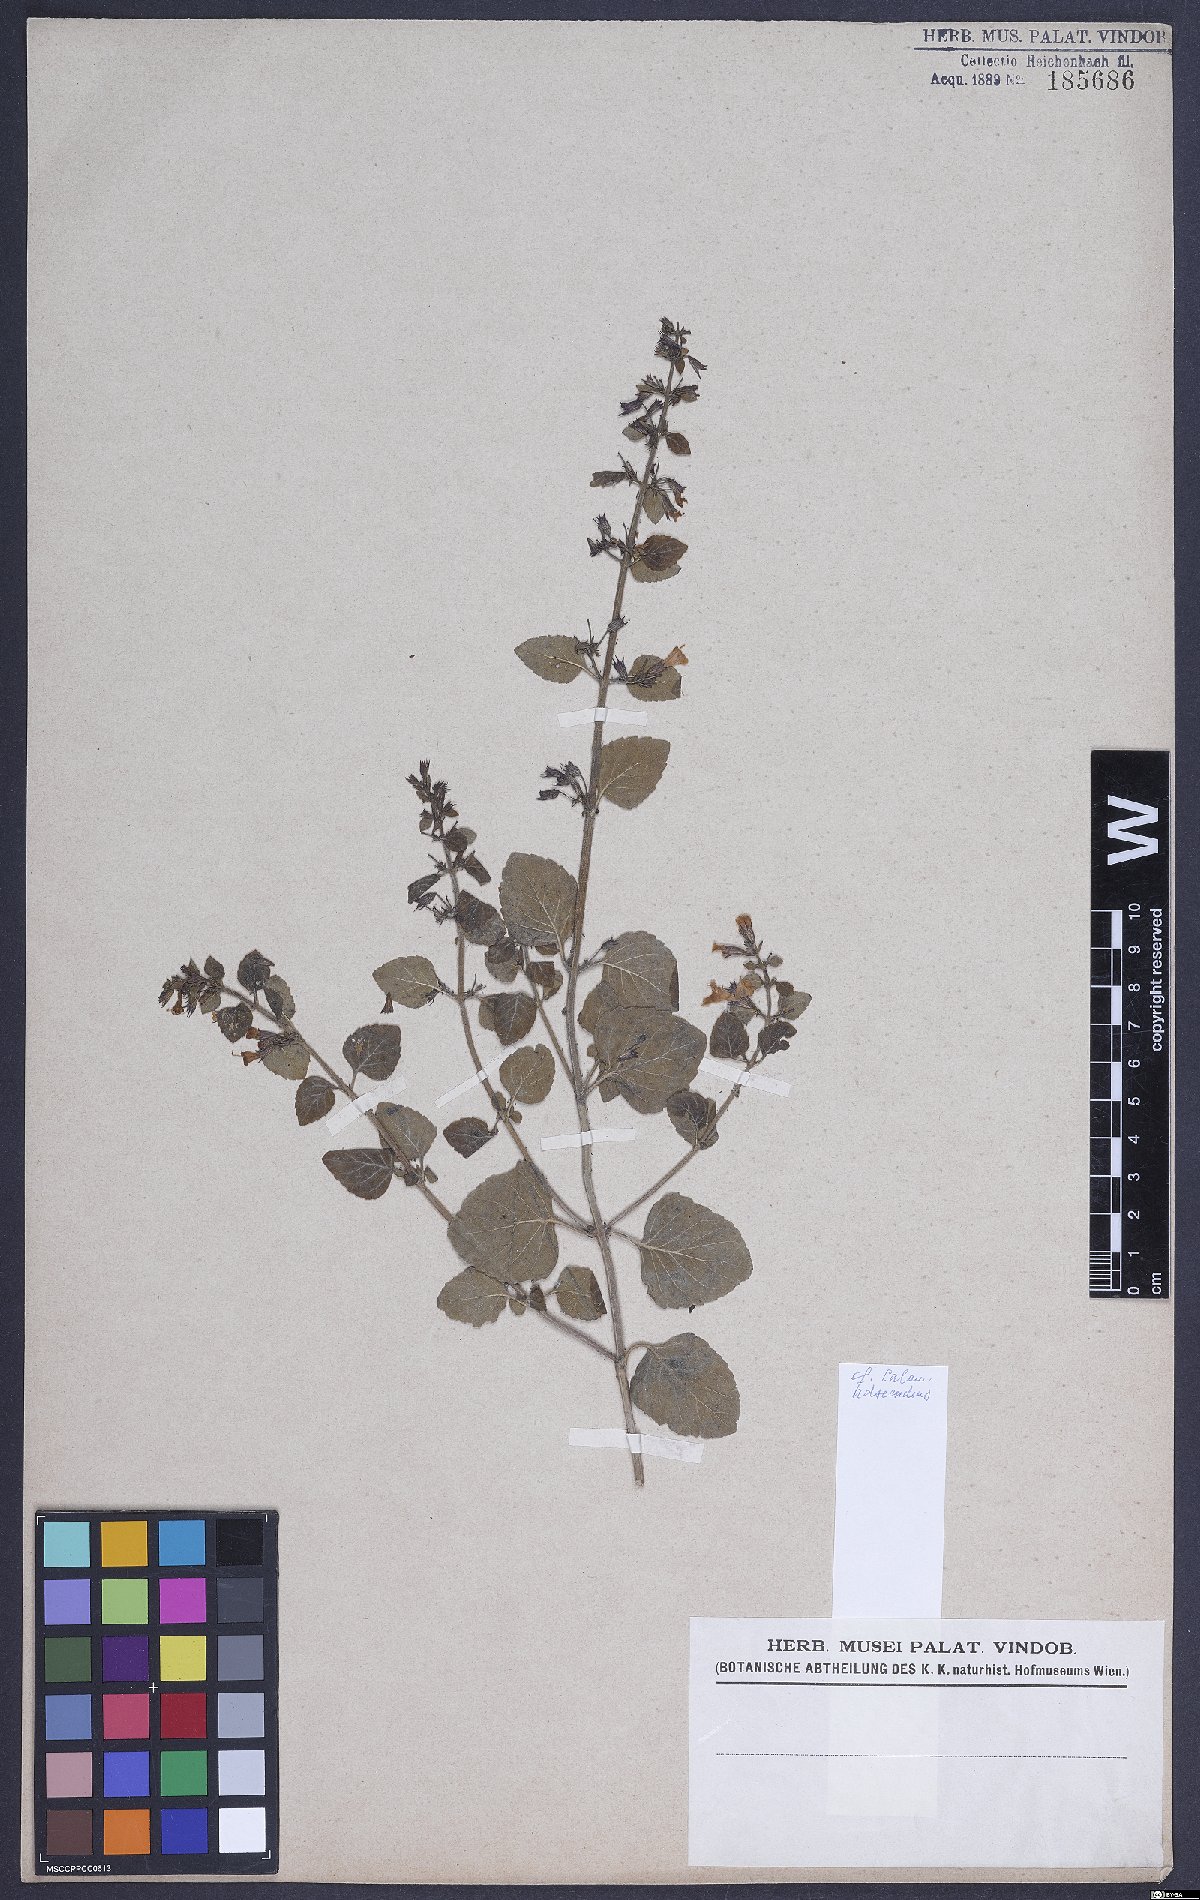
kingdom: Plantae
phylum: Tracheophyta
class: Magnoliopsida
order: Lamiales
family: Lamiaceae
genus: Clinopodium
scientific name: Clinopodium menthifolium
